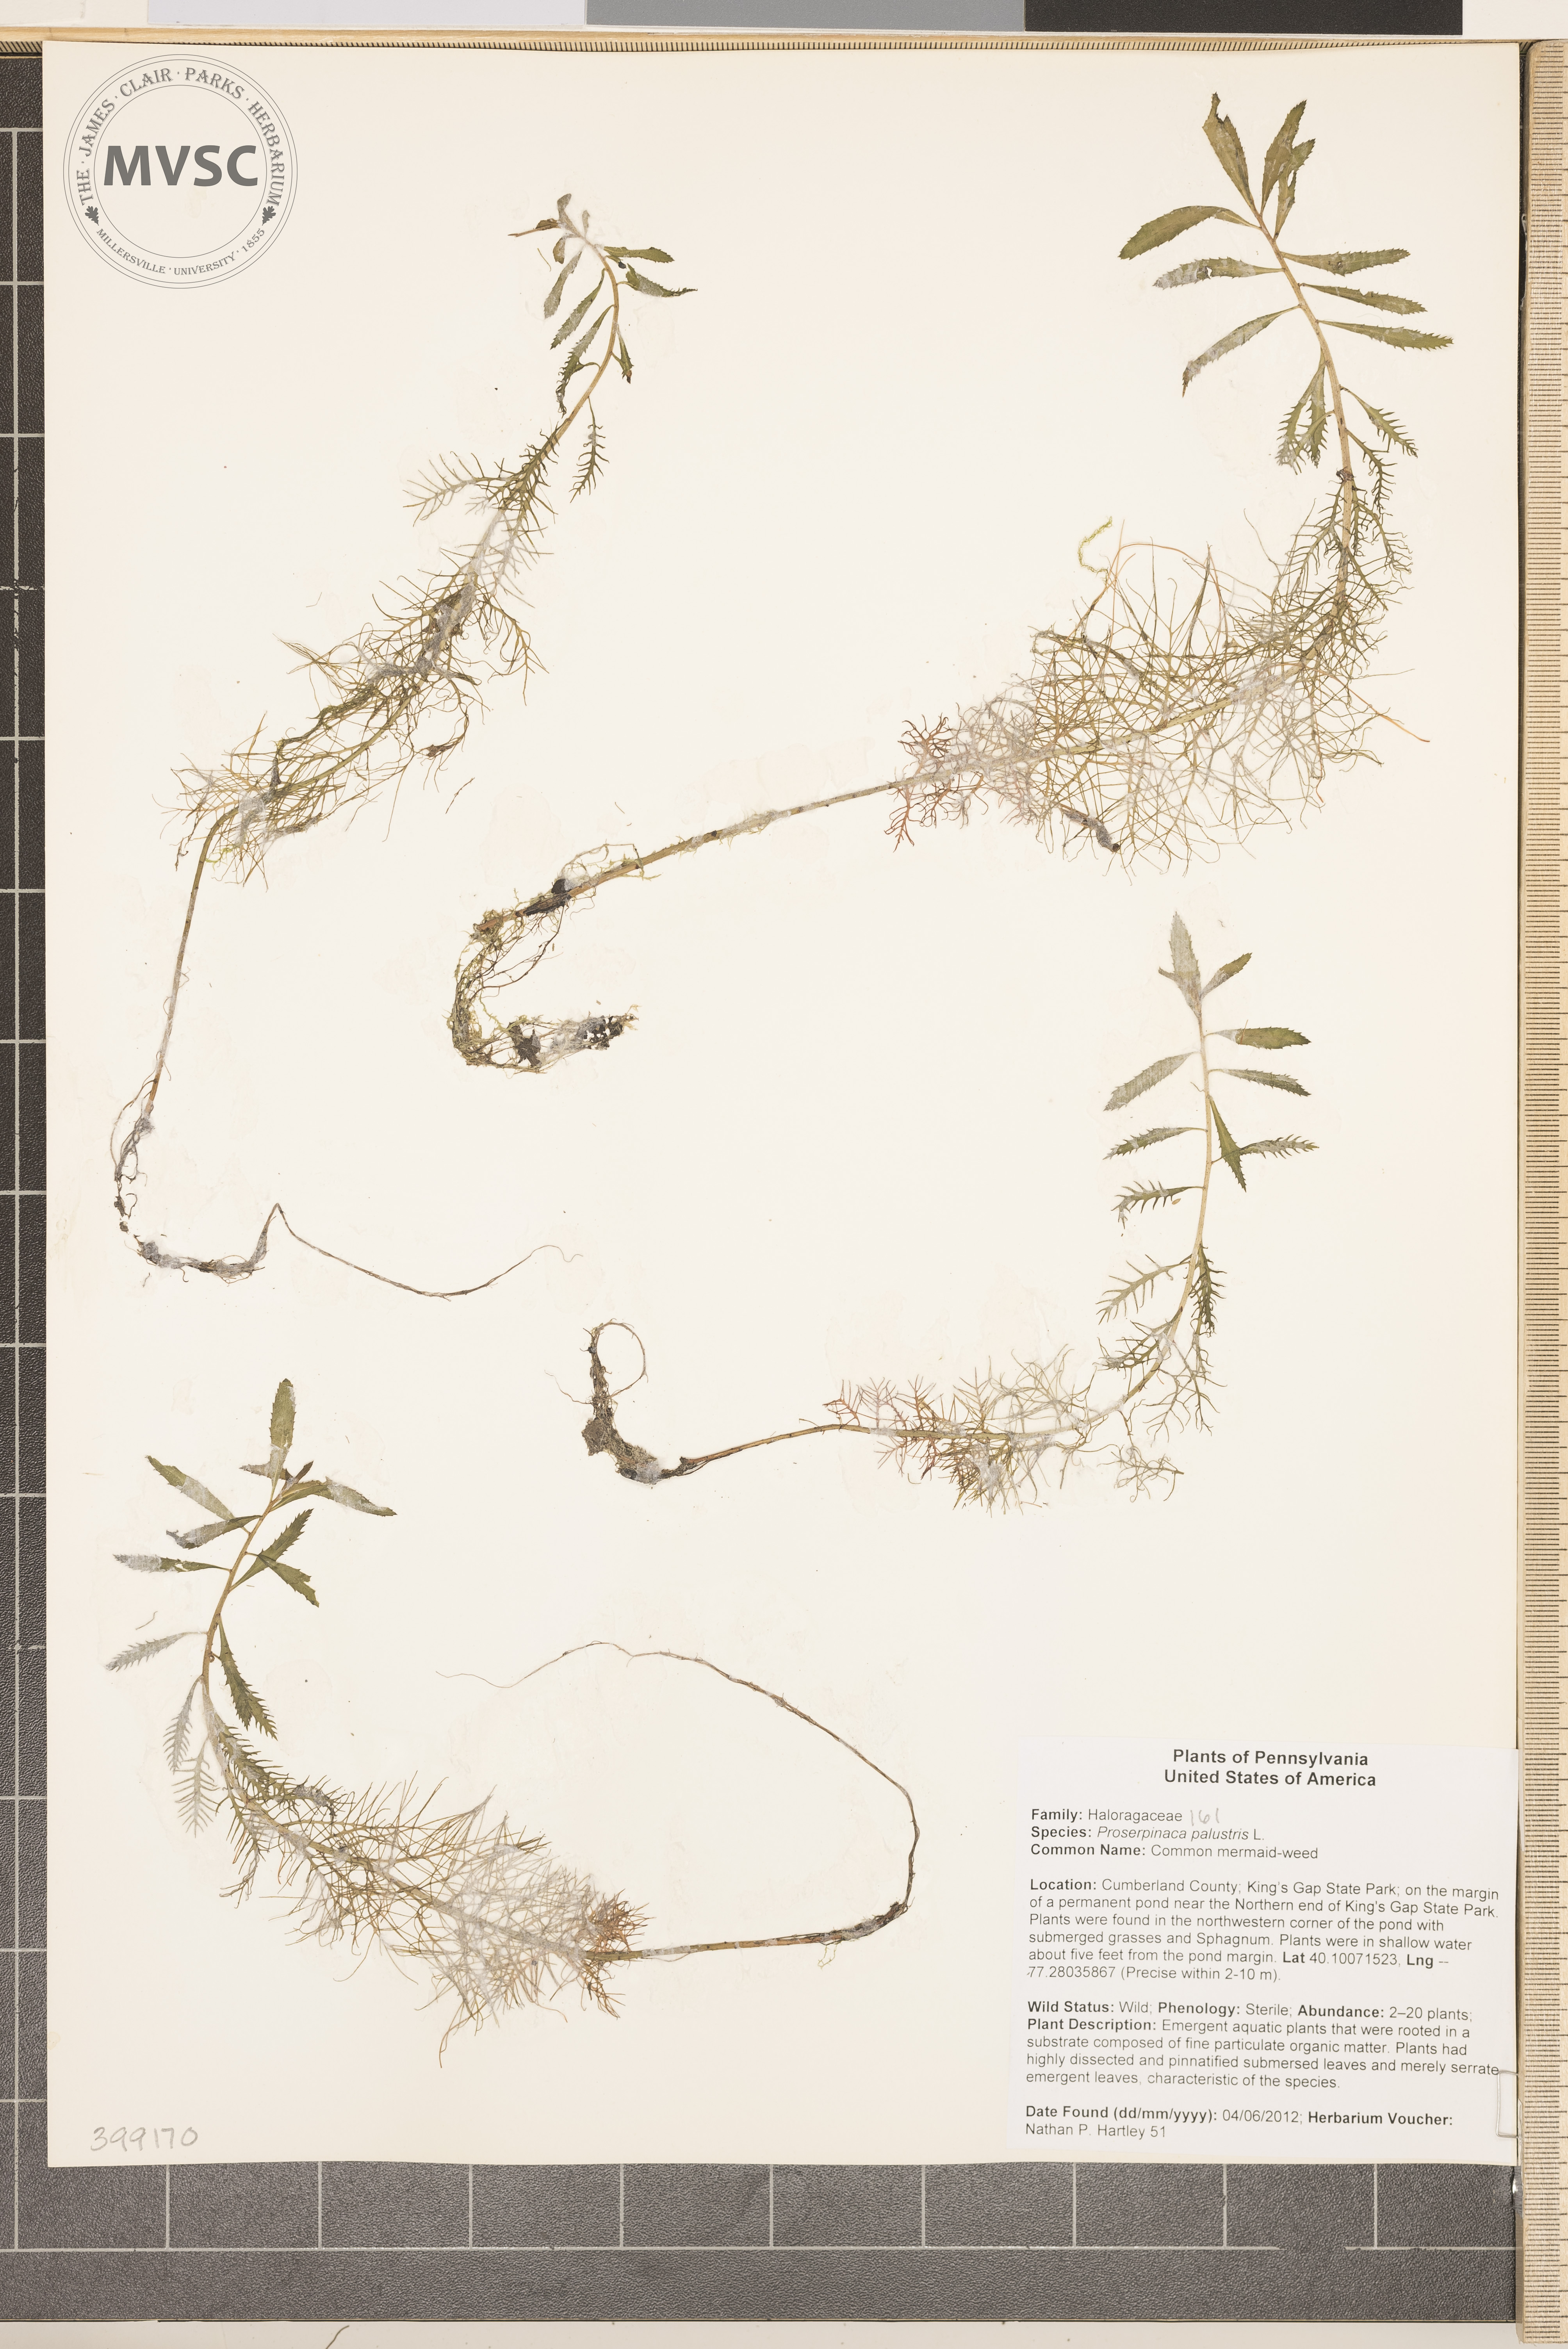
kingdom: Plantae
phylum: Tracheophyta
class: Magnoliopsida
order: Saxifragales
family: Haloragaceae
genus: Proserpinaca
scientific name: Proserpinaca palustris
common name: Unicorn-plant
